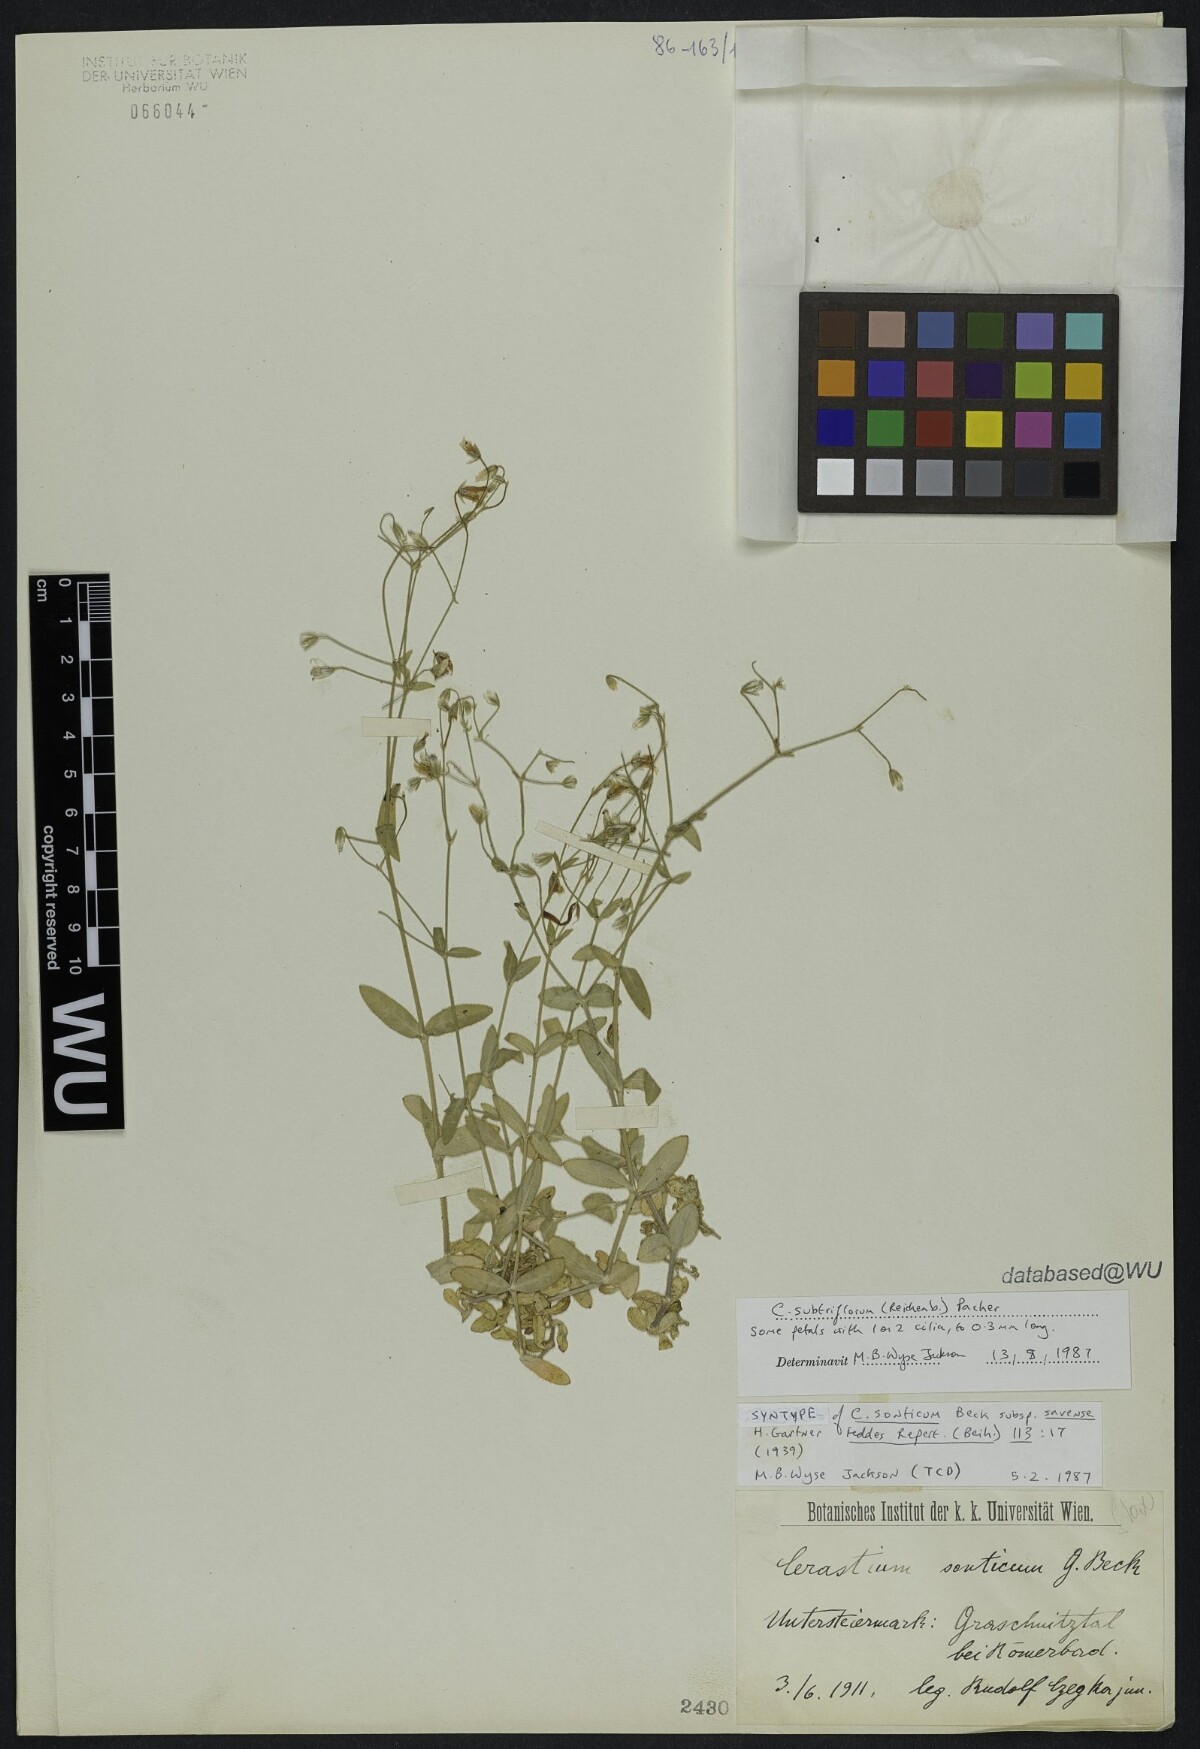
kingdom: Plantae
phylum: Tracheophyta
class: Magnoliopsida
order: Caryophyllales
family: Caryophyllaceae
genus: Cerastium
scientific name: Cerastium subtriflorum
